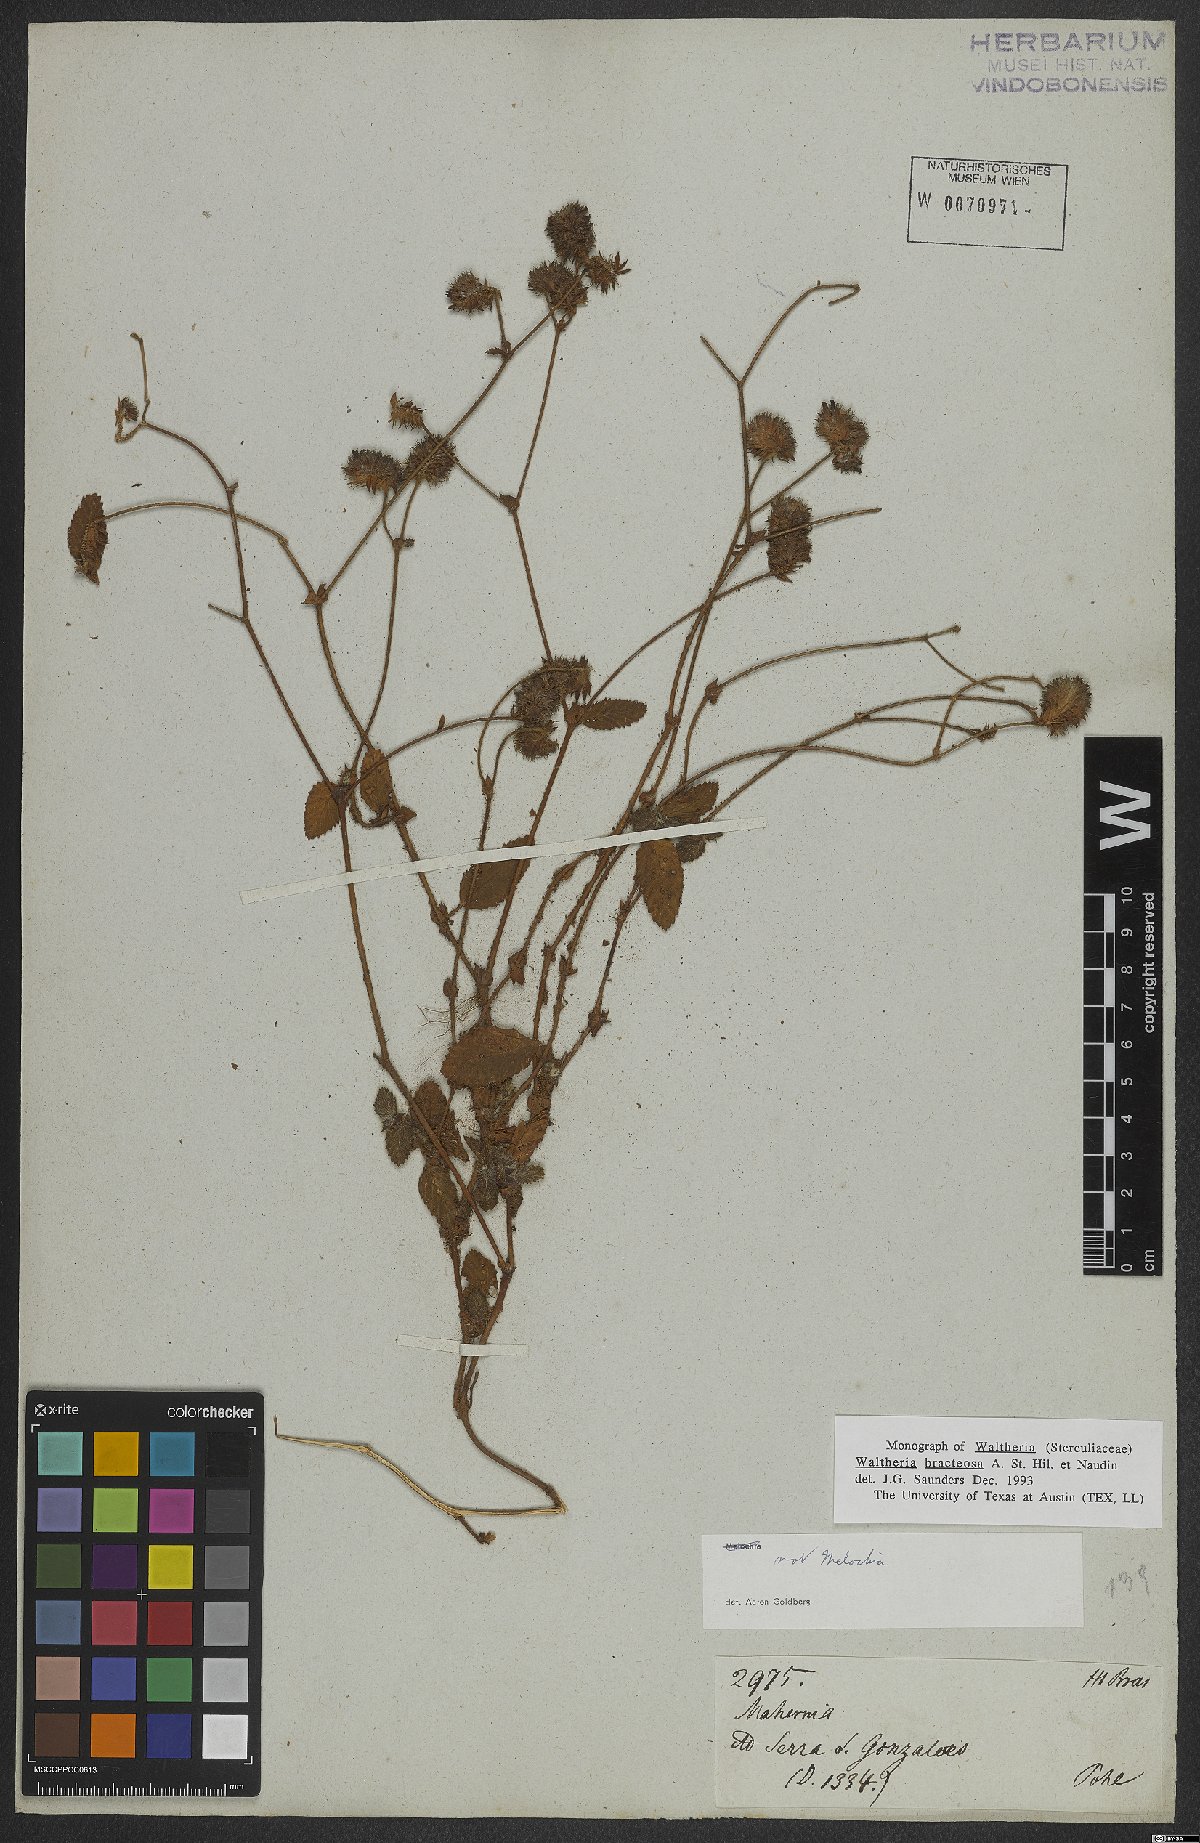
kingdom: Plantae
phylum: Tracheophyta
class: Magnoliopsida
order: Malvales
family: Malvaceae
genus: Waltheria
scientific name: Waltheria bracteosa
